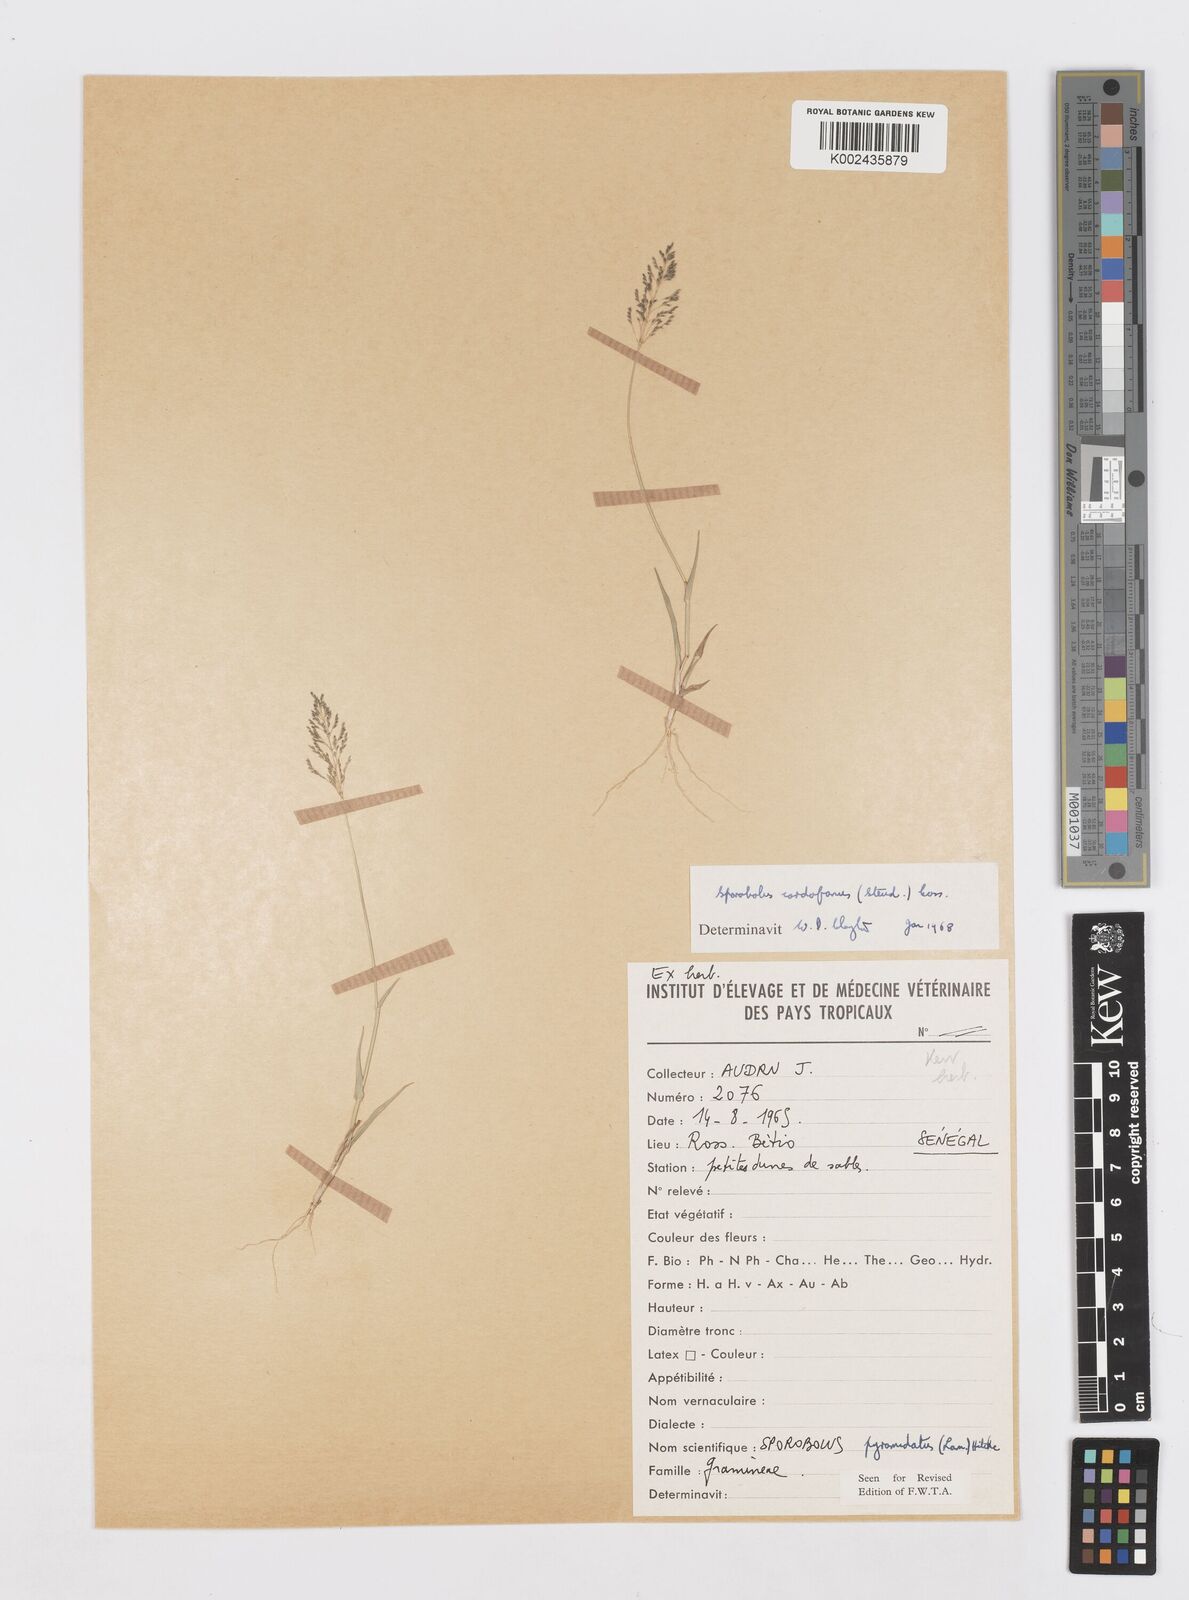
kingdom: Plantae
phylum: Tracheophyta
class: Liliopsida
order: Poales
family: Poaceae
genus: Sporobolus
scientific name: Sporobolus cordofanus
